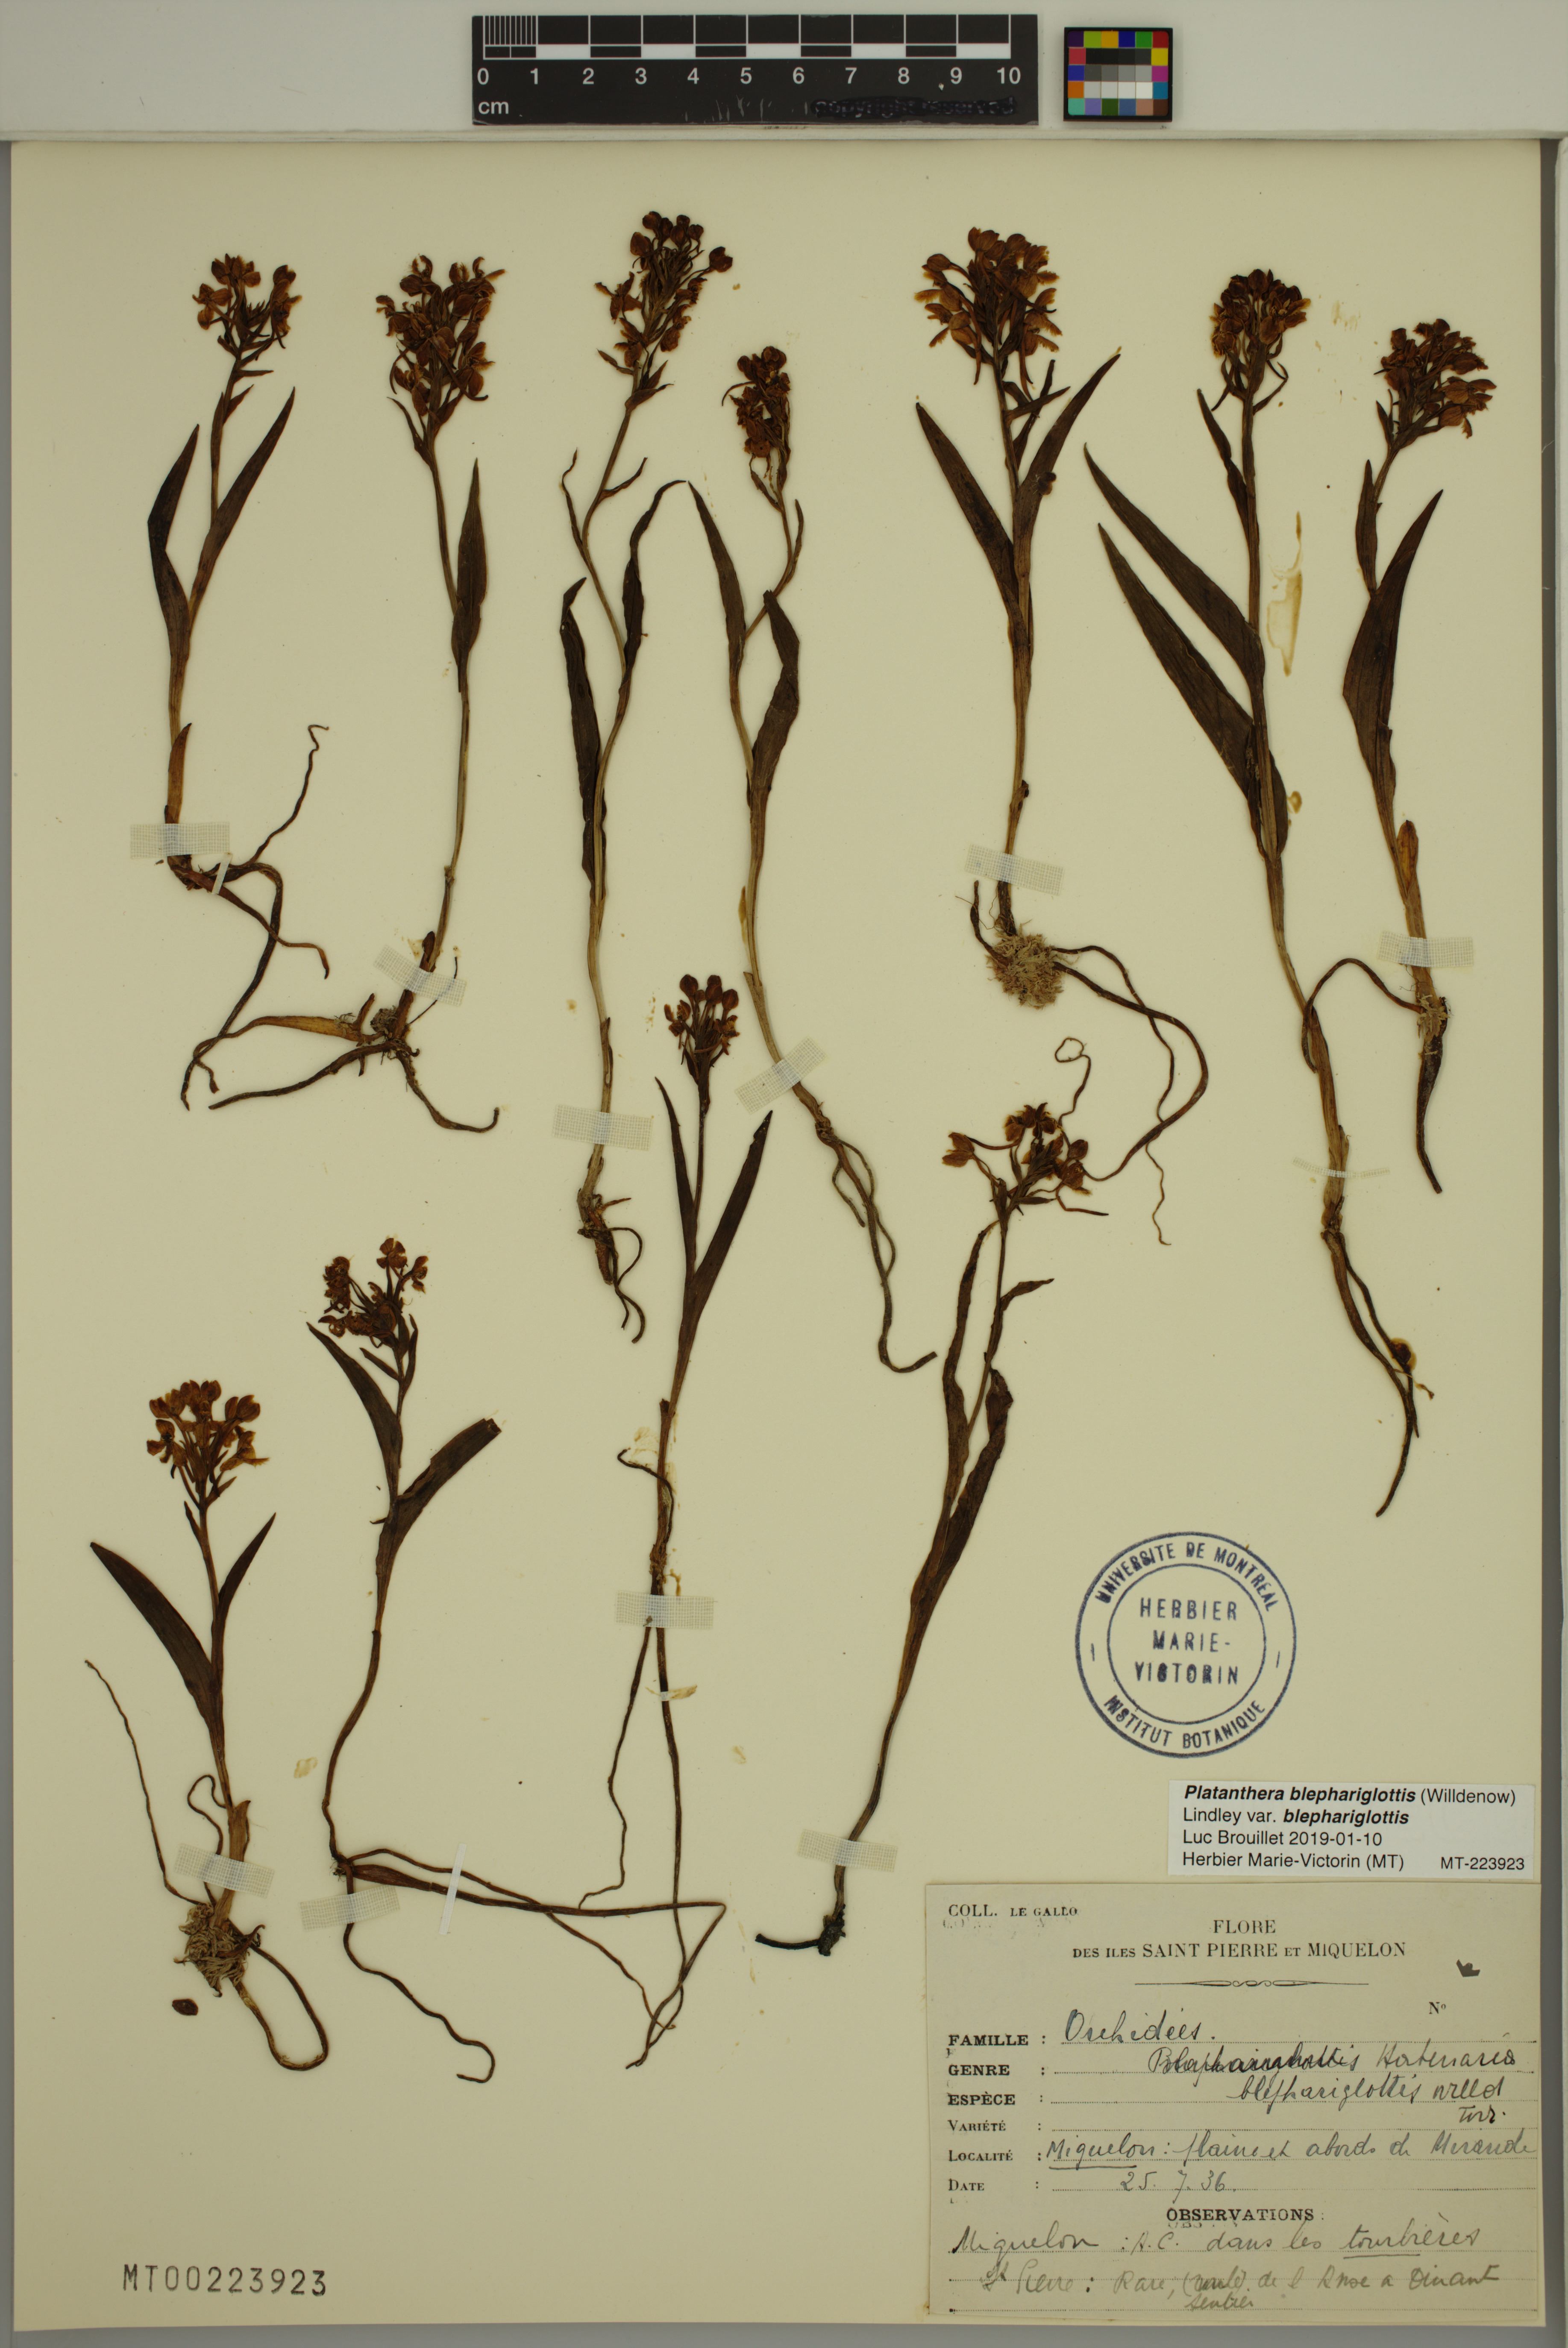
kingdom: Plantae
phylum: Tracheophyta
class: Liliopsida
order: Asparagales
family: Orchidaceae
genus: Platanthera
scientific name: Platanthera blephariglottis
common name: White fringed orchid
